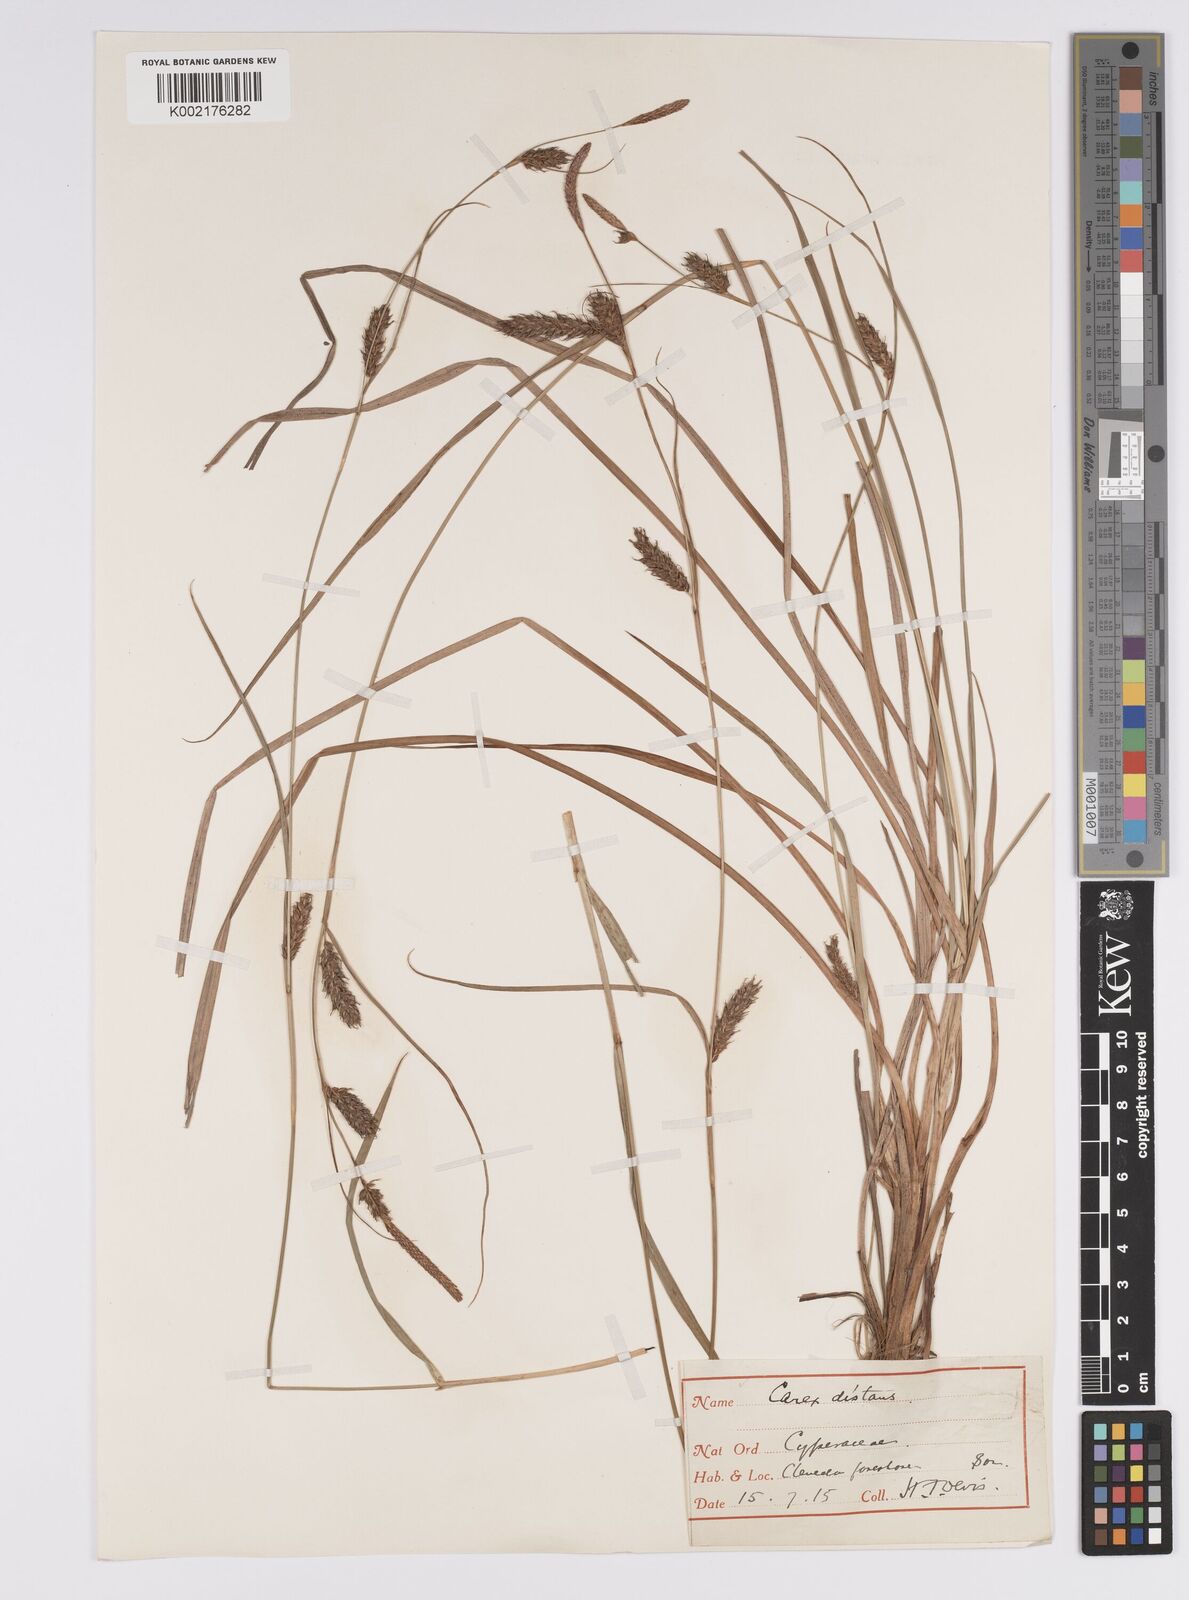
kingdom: Plantae
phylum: Tracheophyta
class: Liliopsida
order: Poales
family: Cyperaceae
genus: Carex
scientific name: Carex distans
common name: Distant sedge
